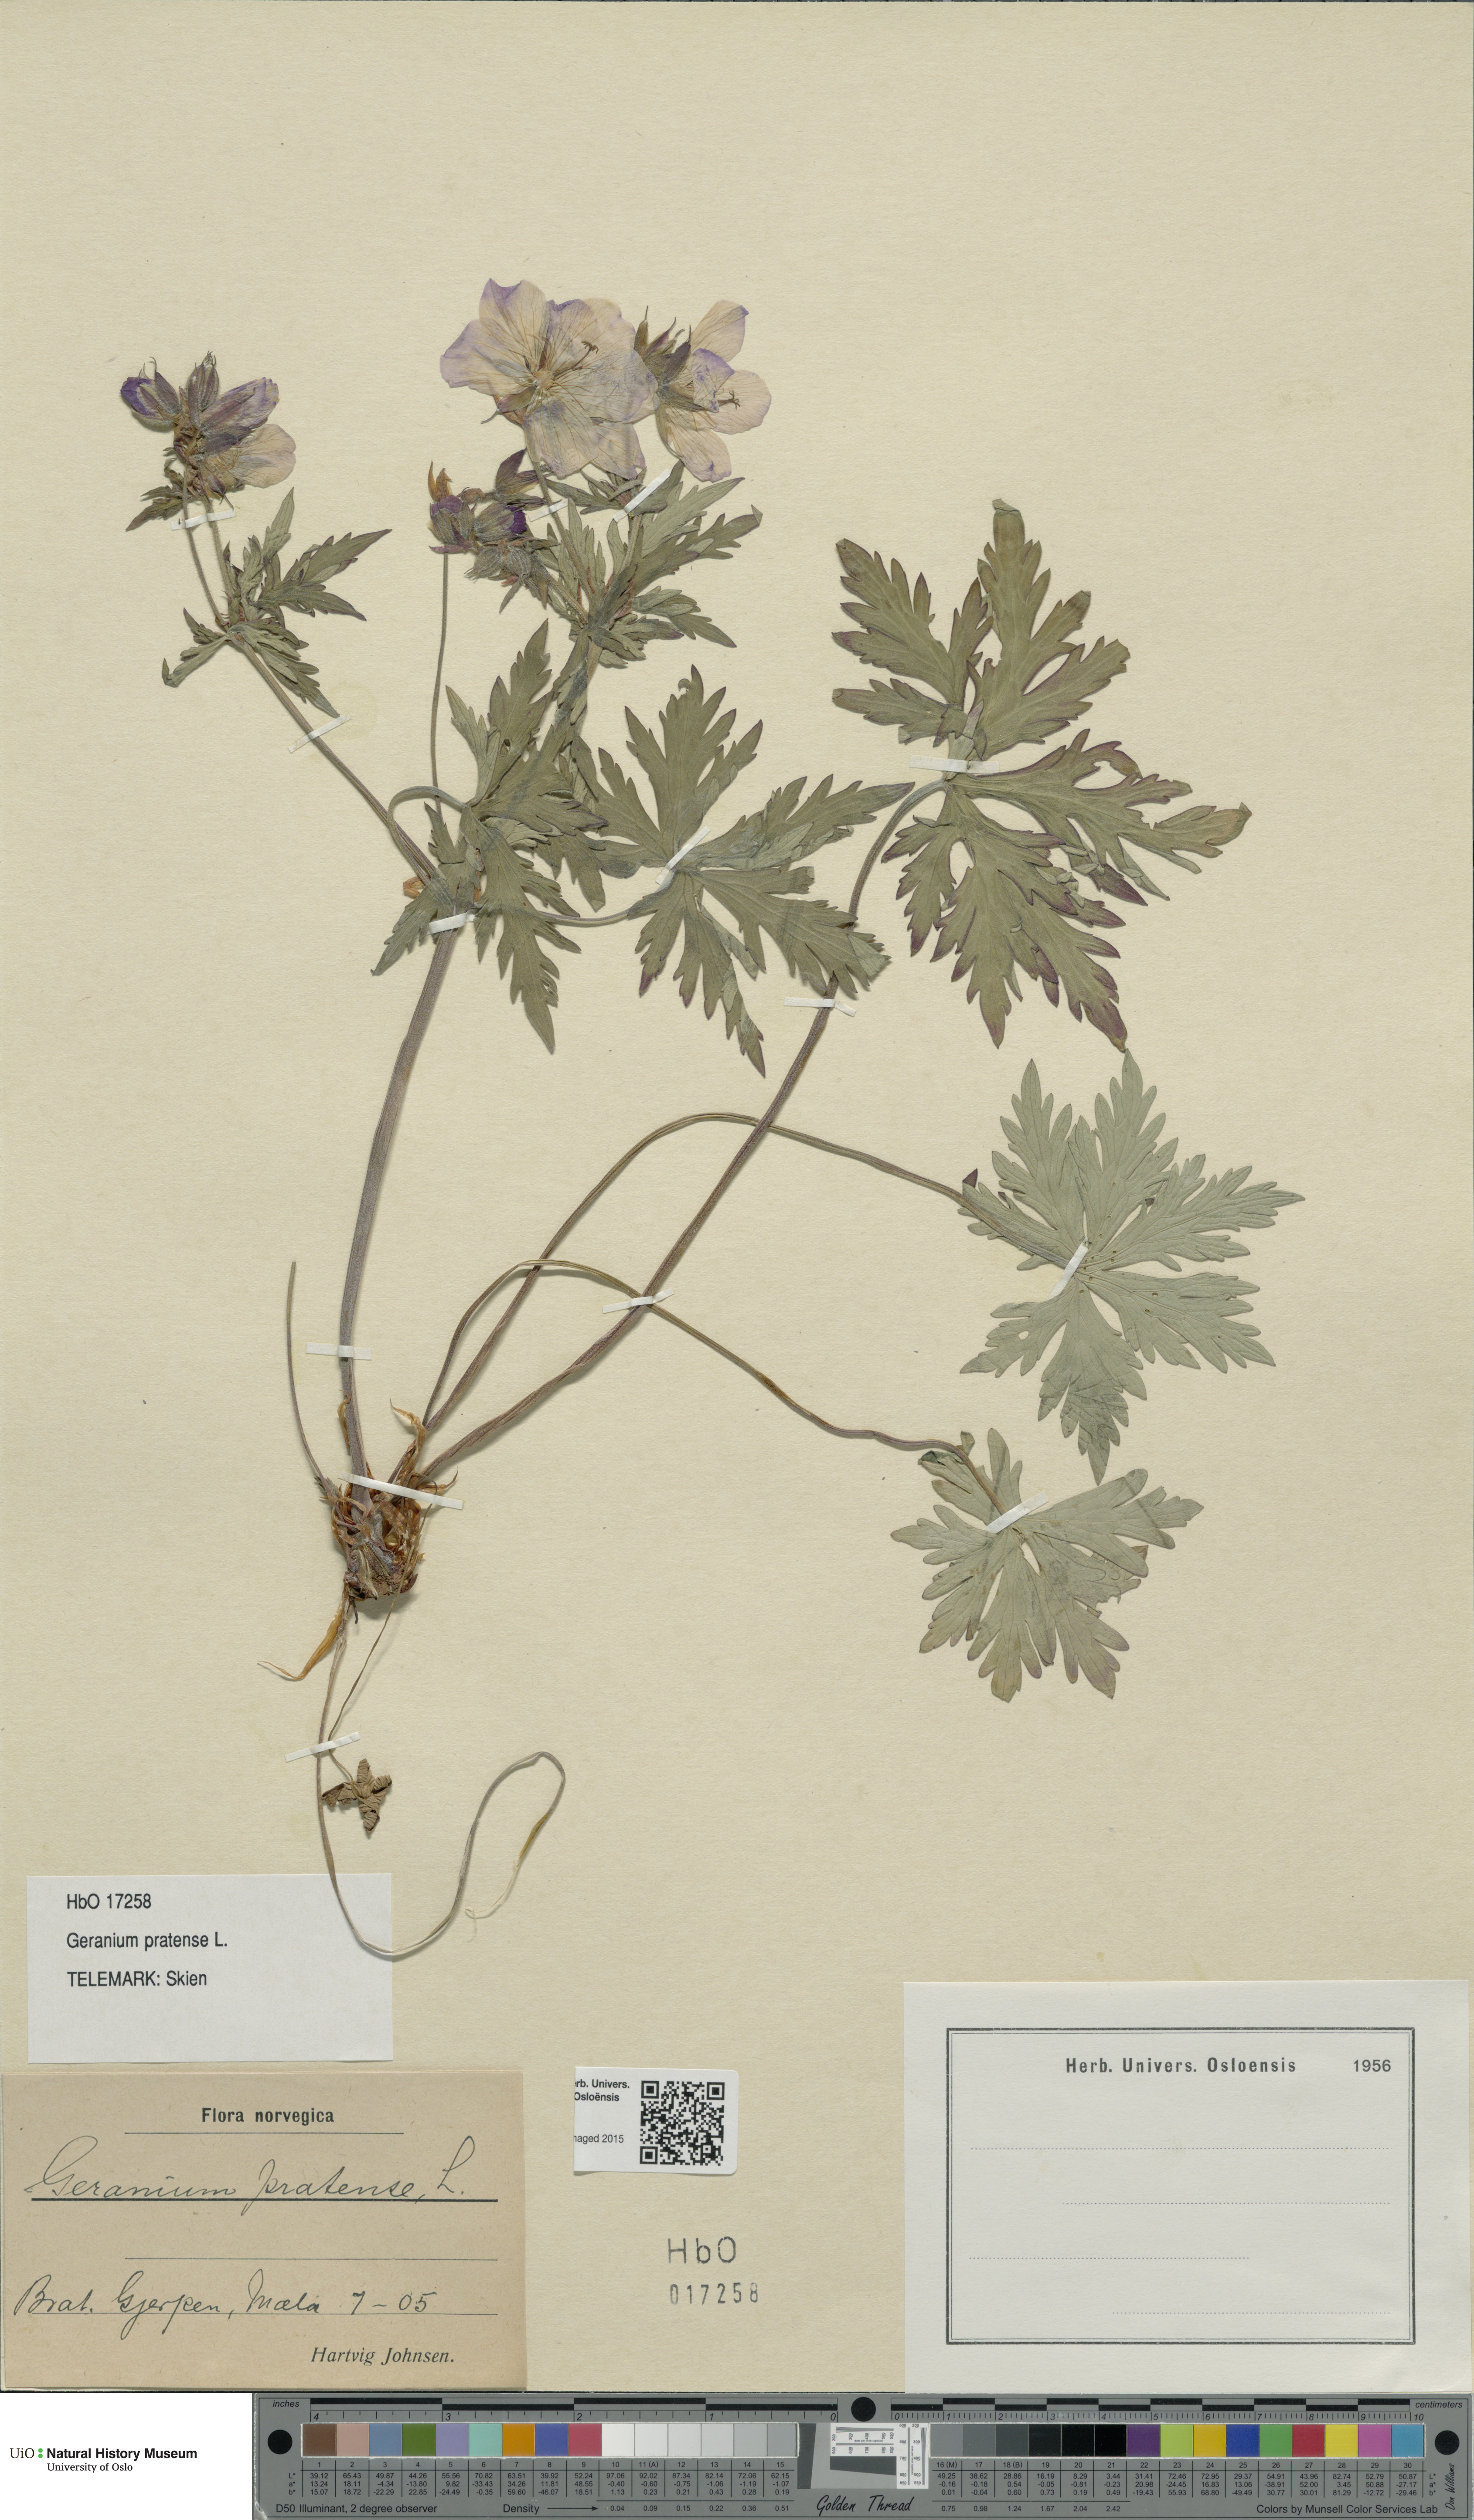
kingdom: Plantae
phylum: Tracheophyta
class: Magnoliopsida
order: Geraniales
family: Geraniaceae
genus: Geranium
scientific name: Geranium pratense
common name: Meadow crane's-bill
